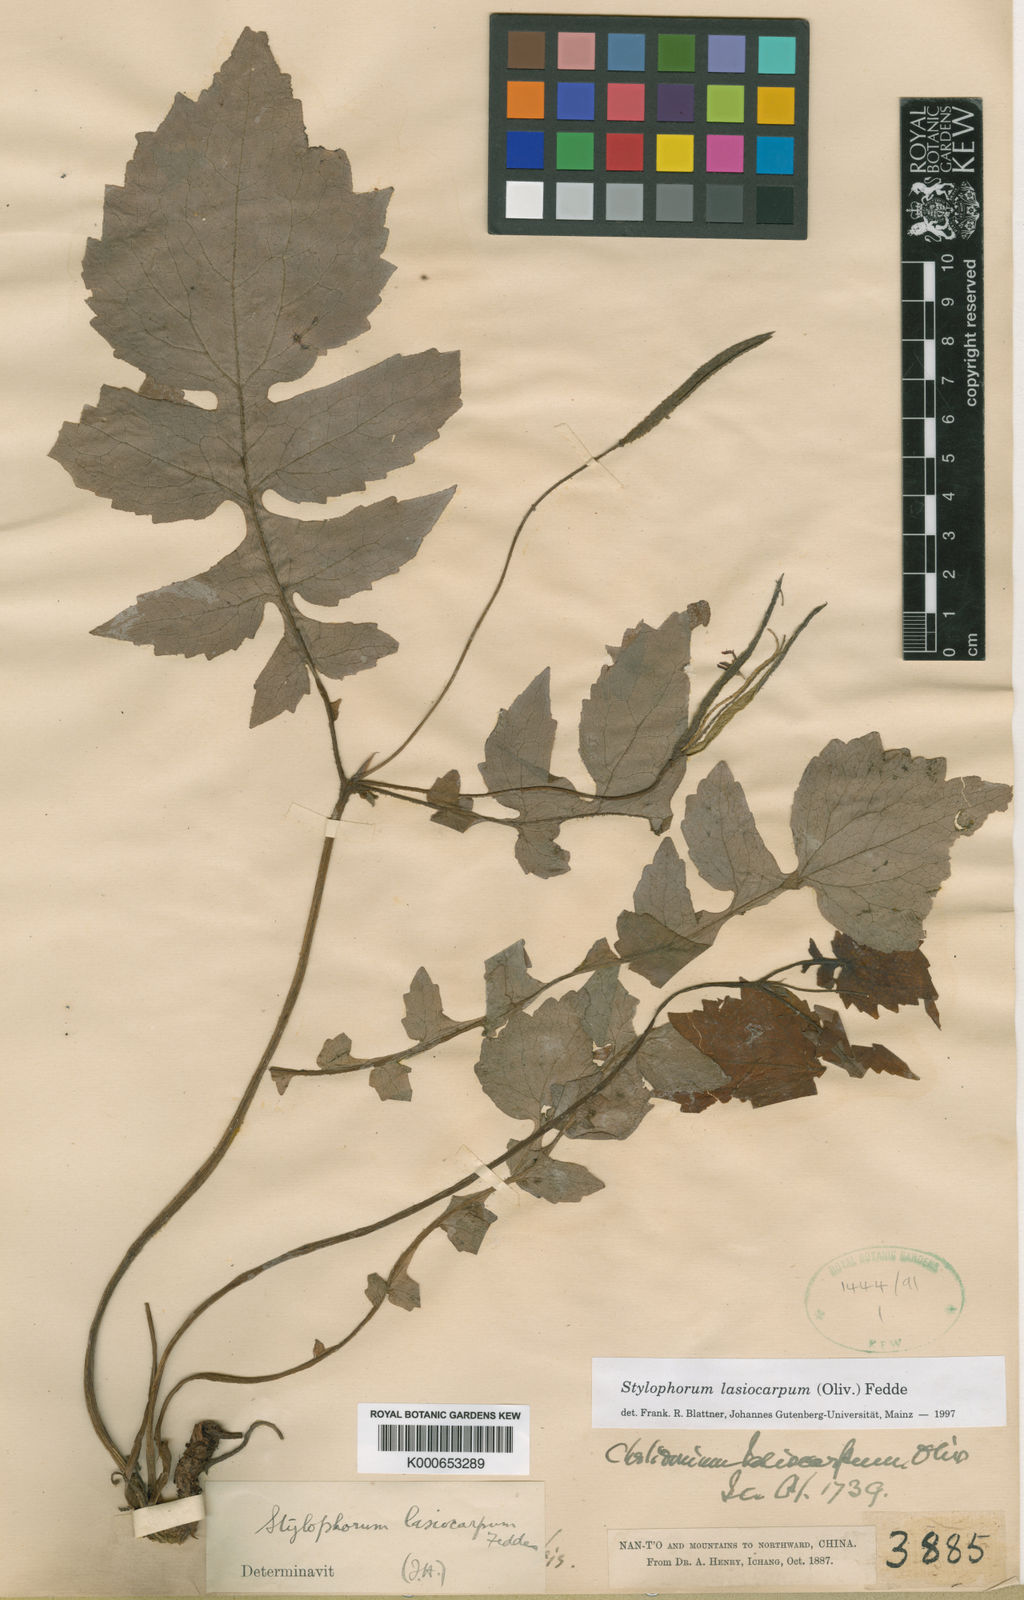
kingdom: Plantae
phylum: Tracheophyta
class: Magnoliopsida
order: Ranunculales
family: Papaveraceae
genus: Stylophorum
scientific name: Stylophorum lasiocarpum
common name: Chinese celandine-poppy
